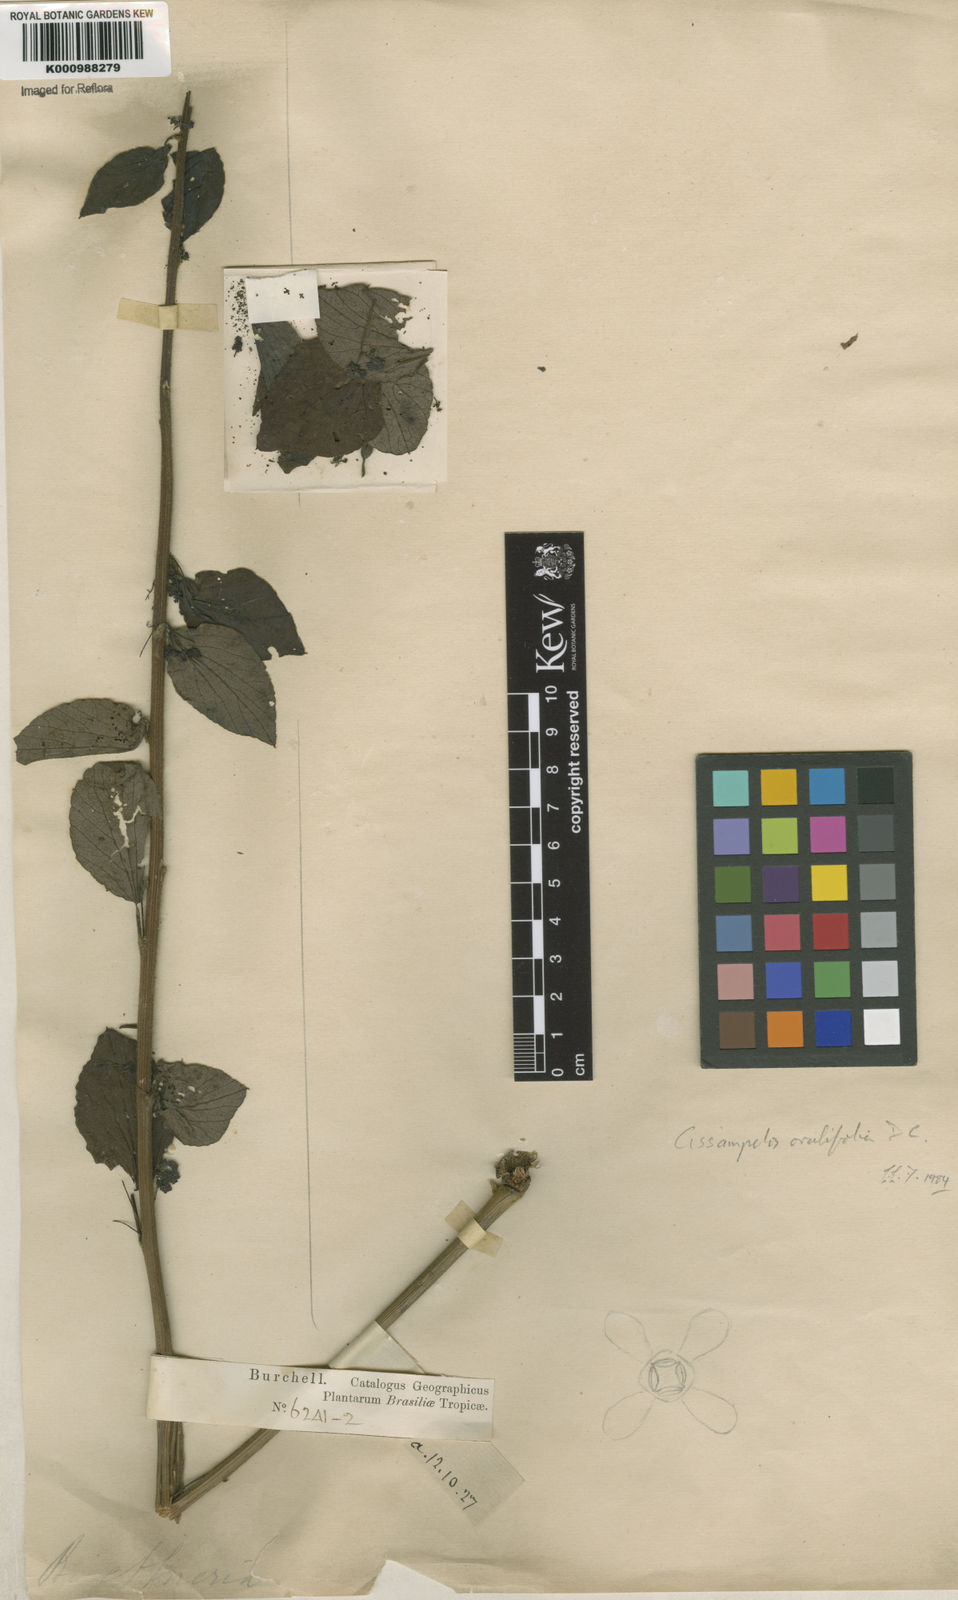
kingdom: Plantae
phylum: Tracheophyta
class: Magnoliopsida
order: Ranunculales
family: Menispermaceae
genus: Cissampelos
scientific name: Cissampelos ovalifolia
